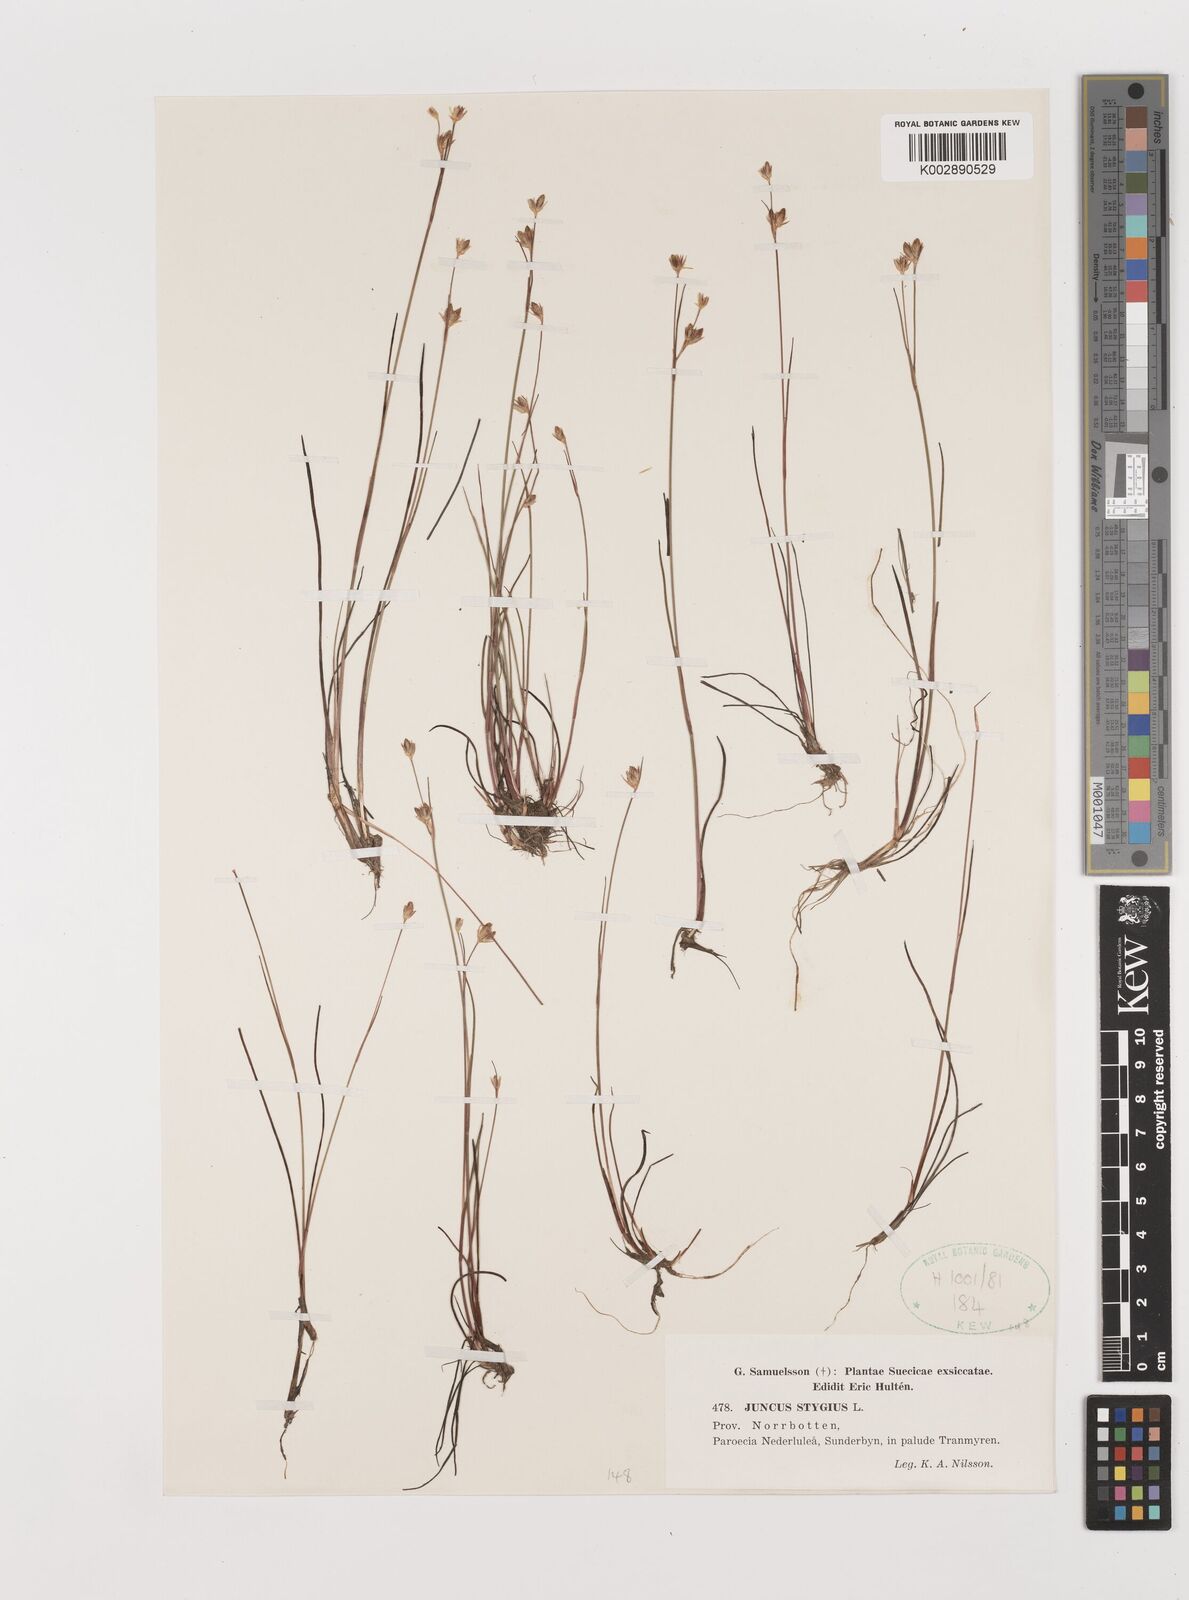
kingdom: Plantae
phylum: Tracheophyta
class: Liliopsida
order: Poales
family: Juncaceae
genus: Juncus
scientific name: Juncus stygius
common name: Bog rush
